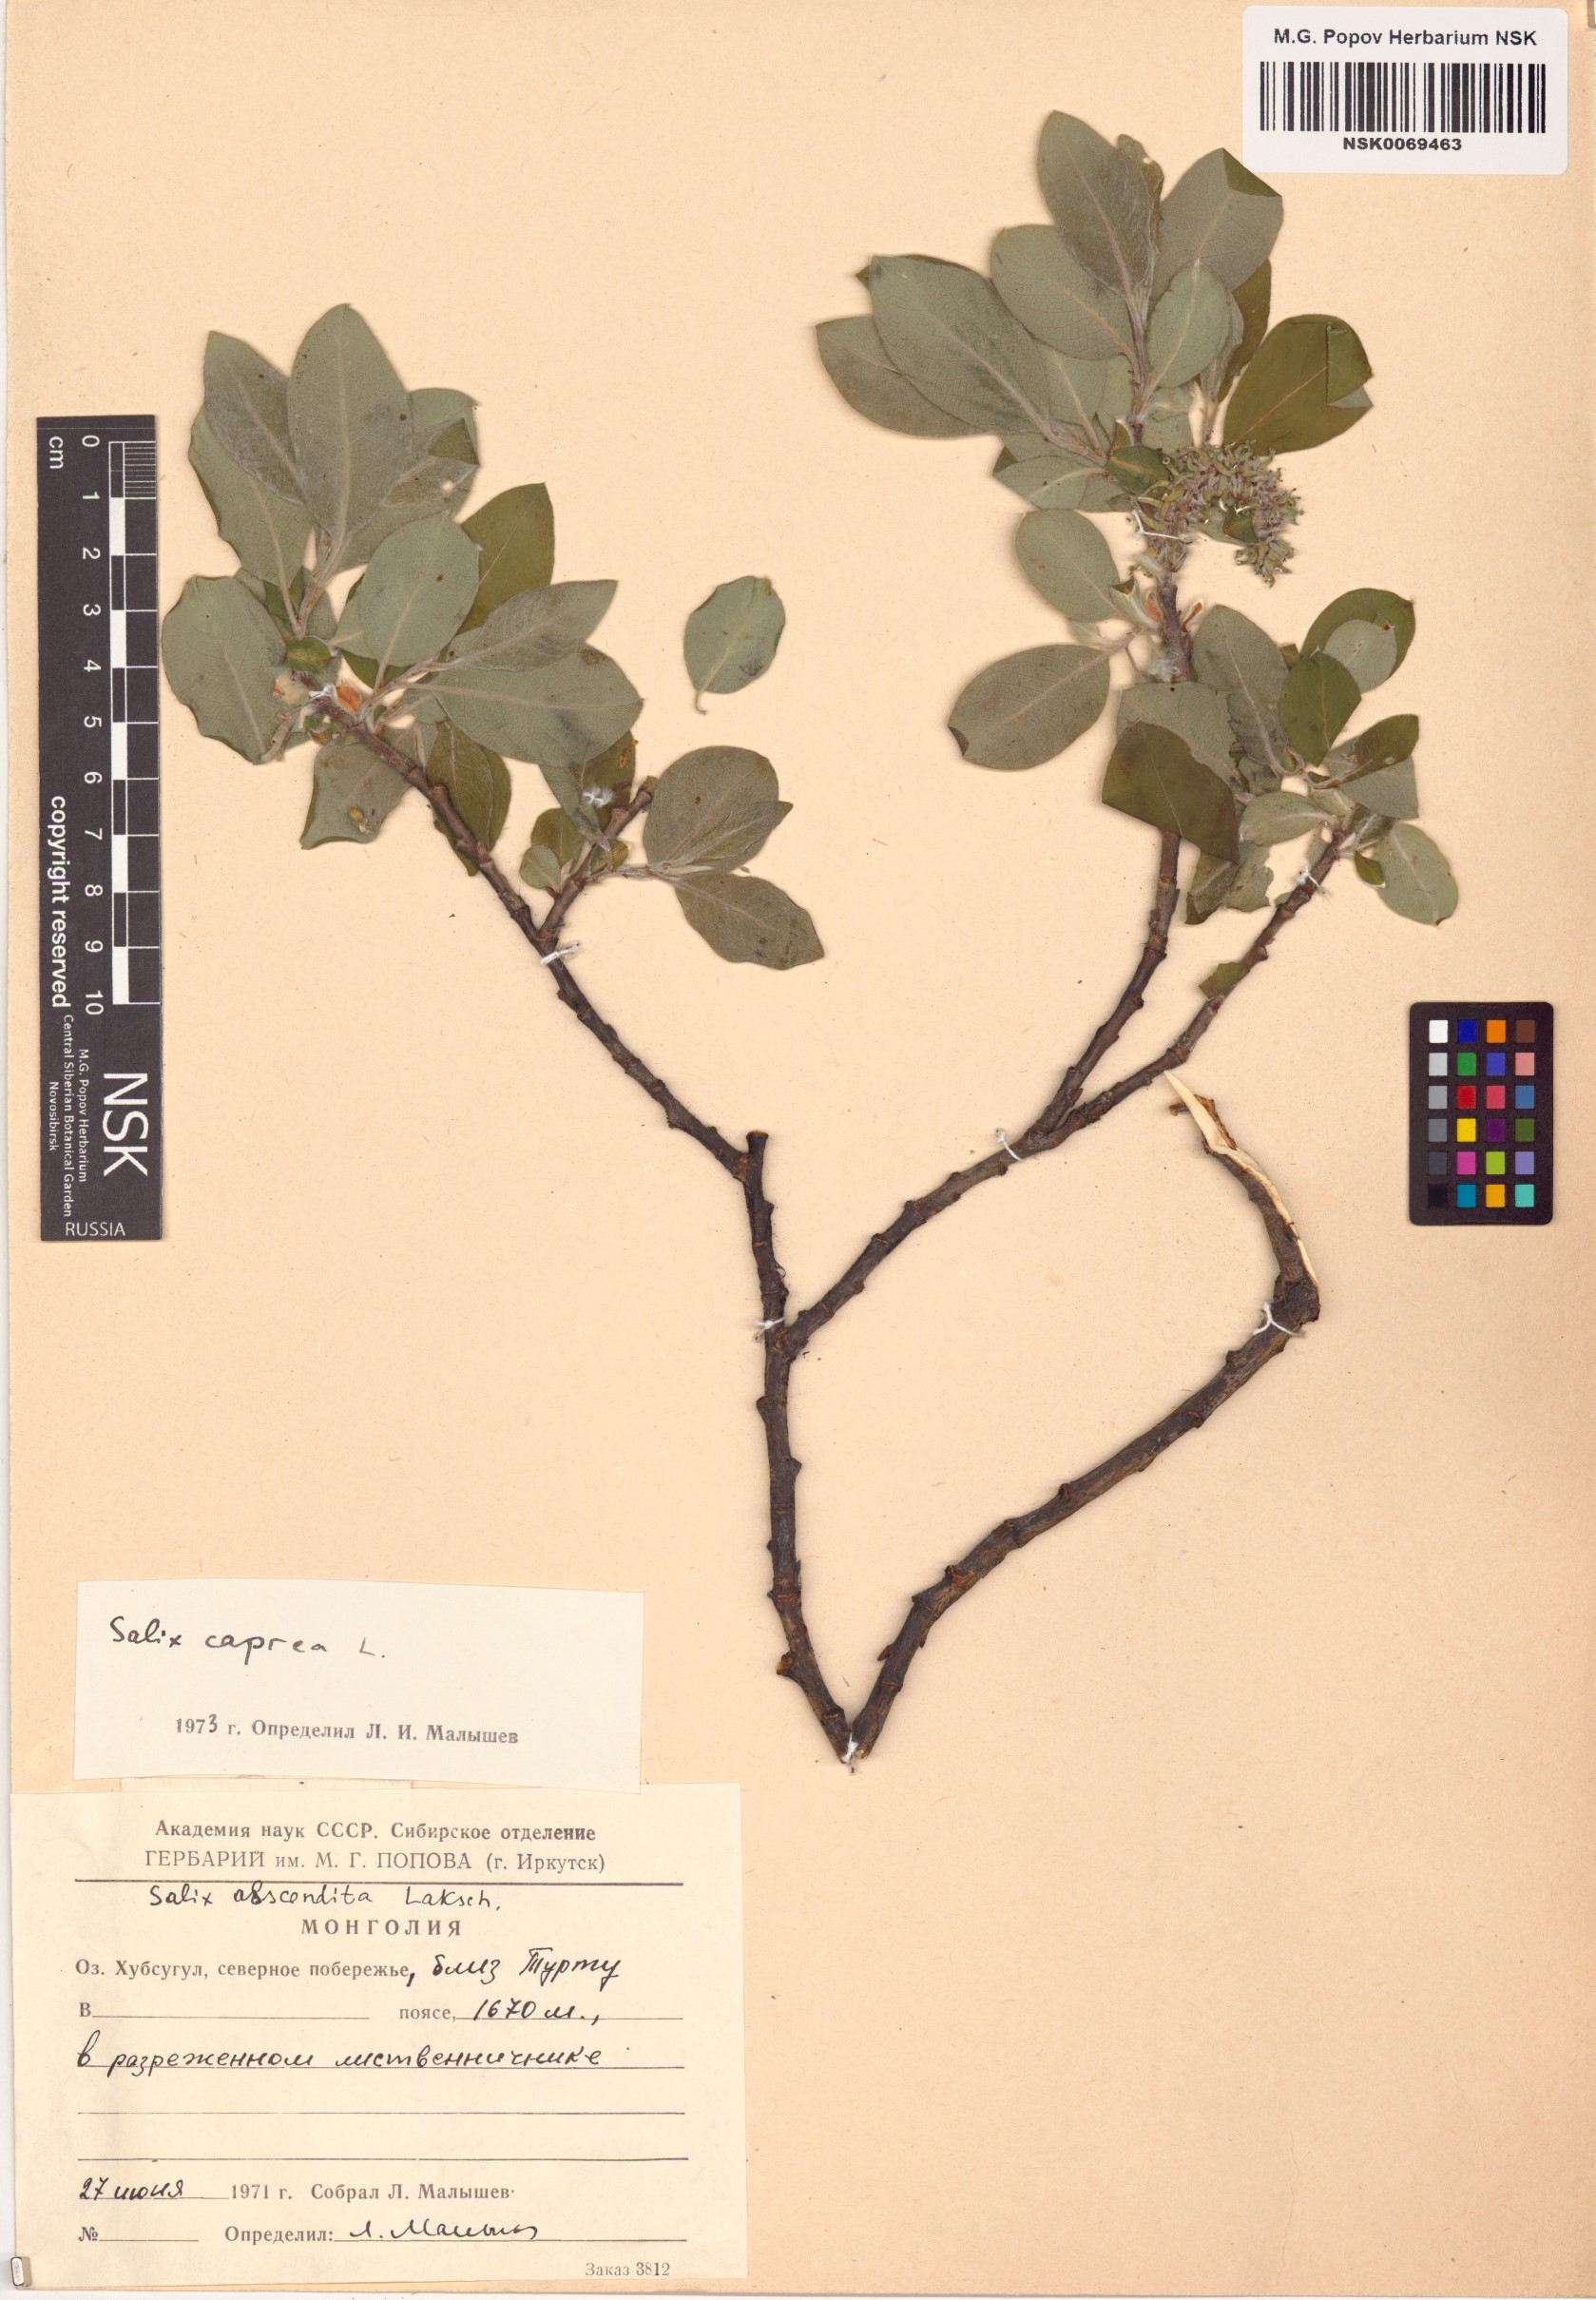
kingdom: Plantae
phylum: Tracheophyta
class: Magnoliopsida
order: Malpighiales
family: Salicaceae
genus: Salix
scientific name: Salix caprea
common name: Goat willow
